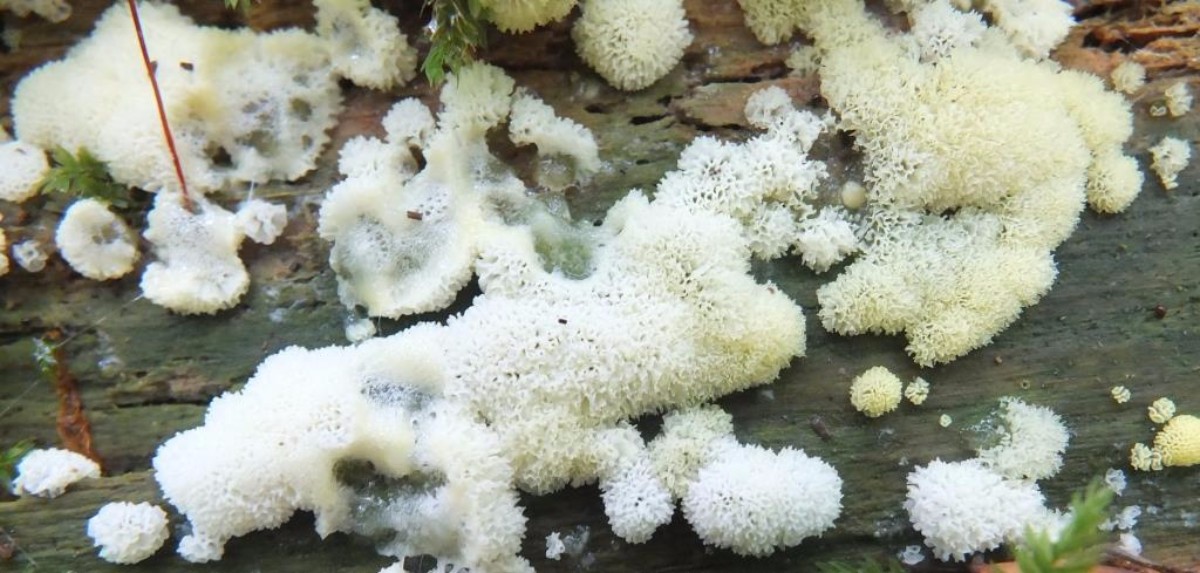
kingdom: Protozoa
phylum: Mycetozoa
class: Protosteliomycetes
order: Ceratiomyxales
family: Ceratiomyxaceae
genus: Ceratiomyxa
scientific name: Ceratiomyxa fruticulosa
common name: Honeycomb coral slime mold
